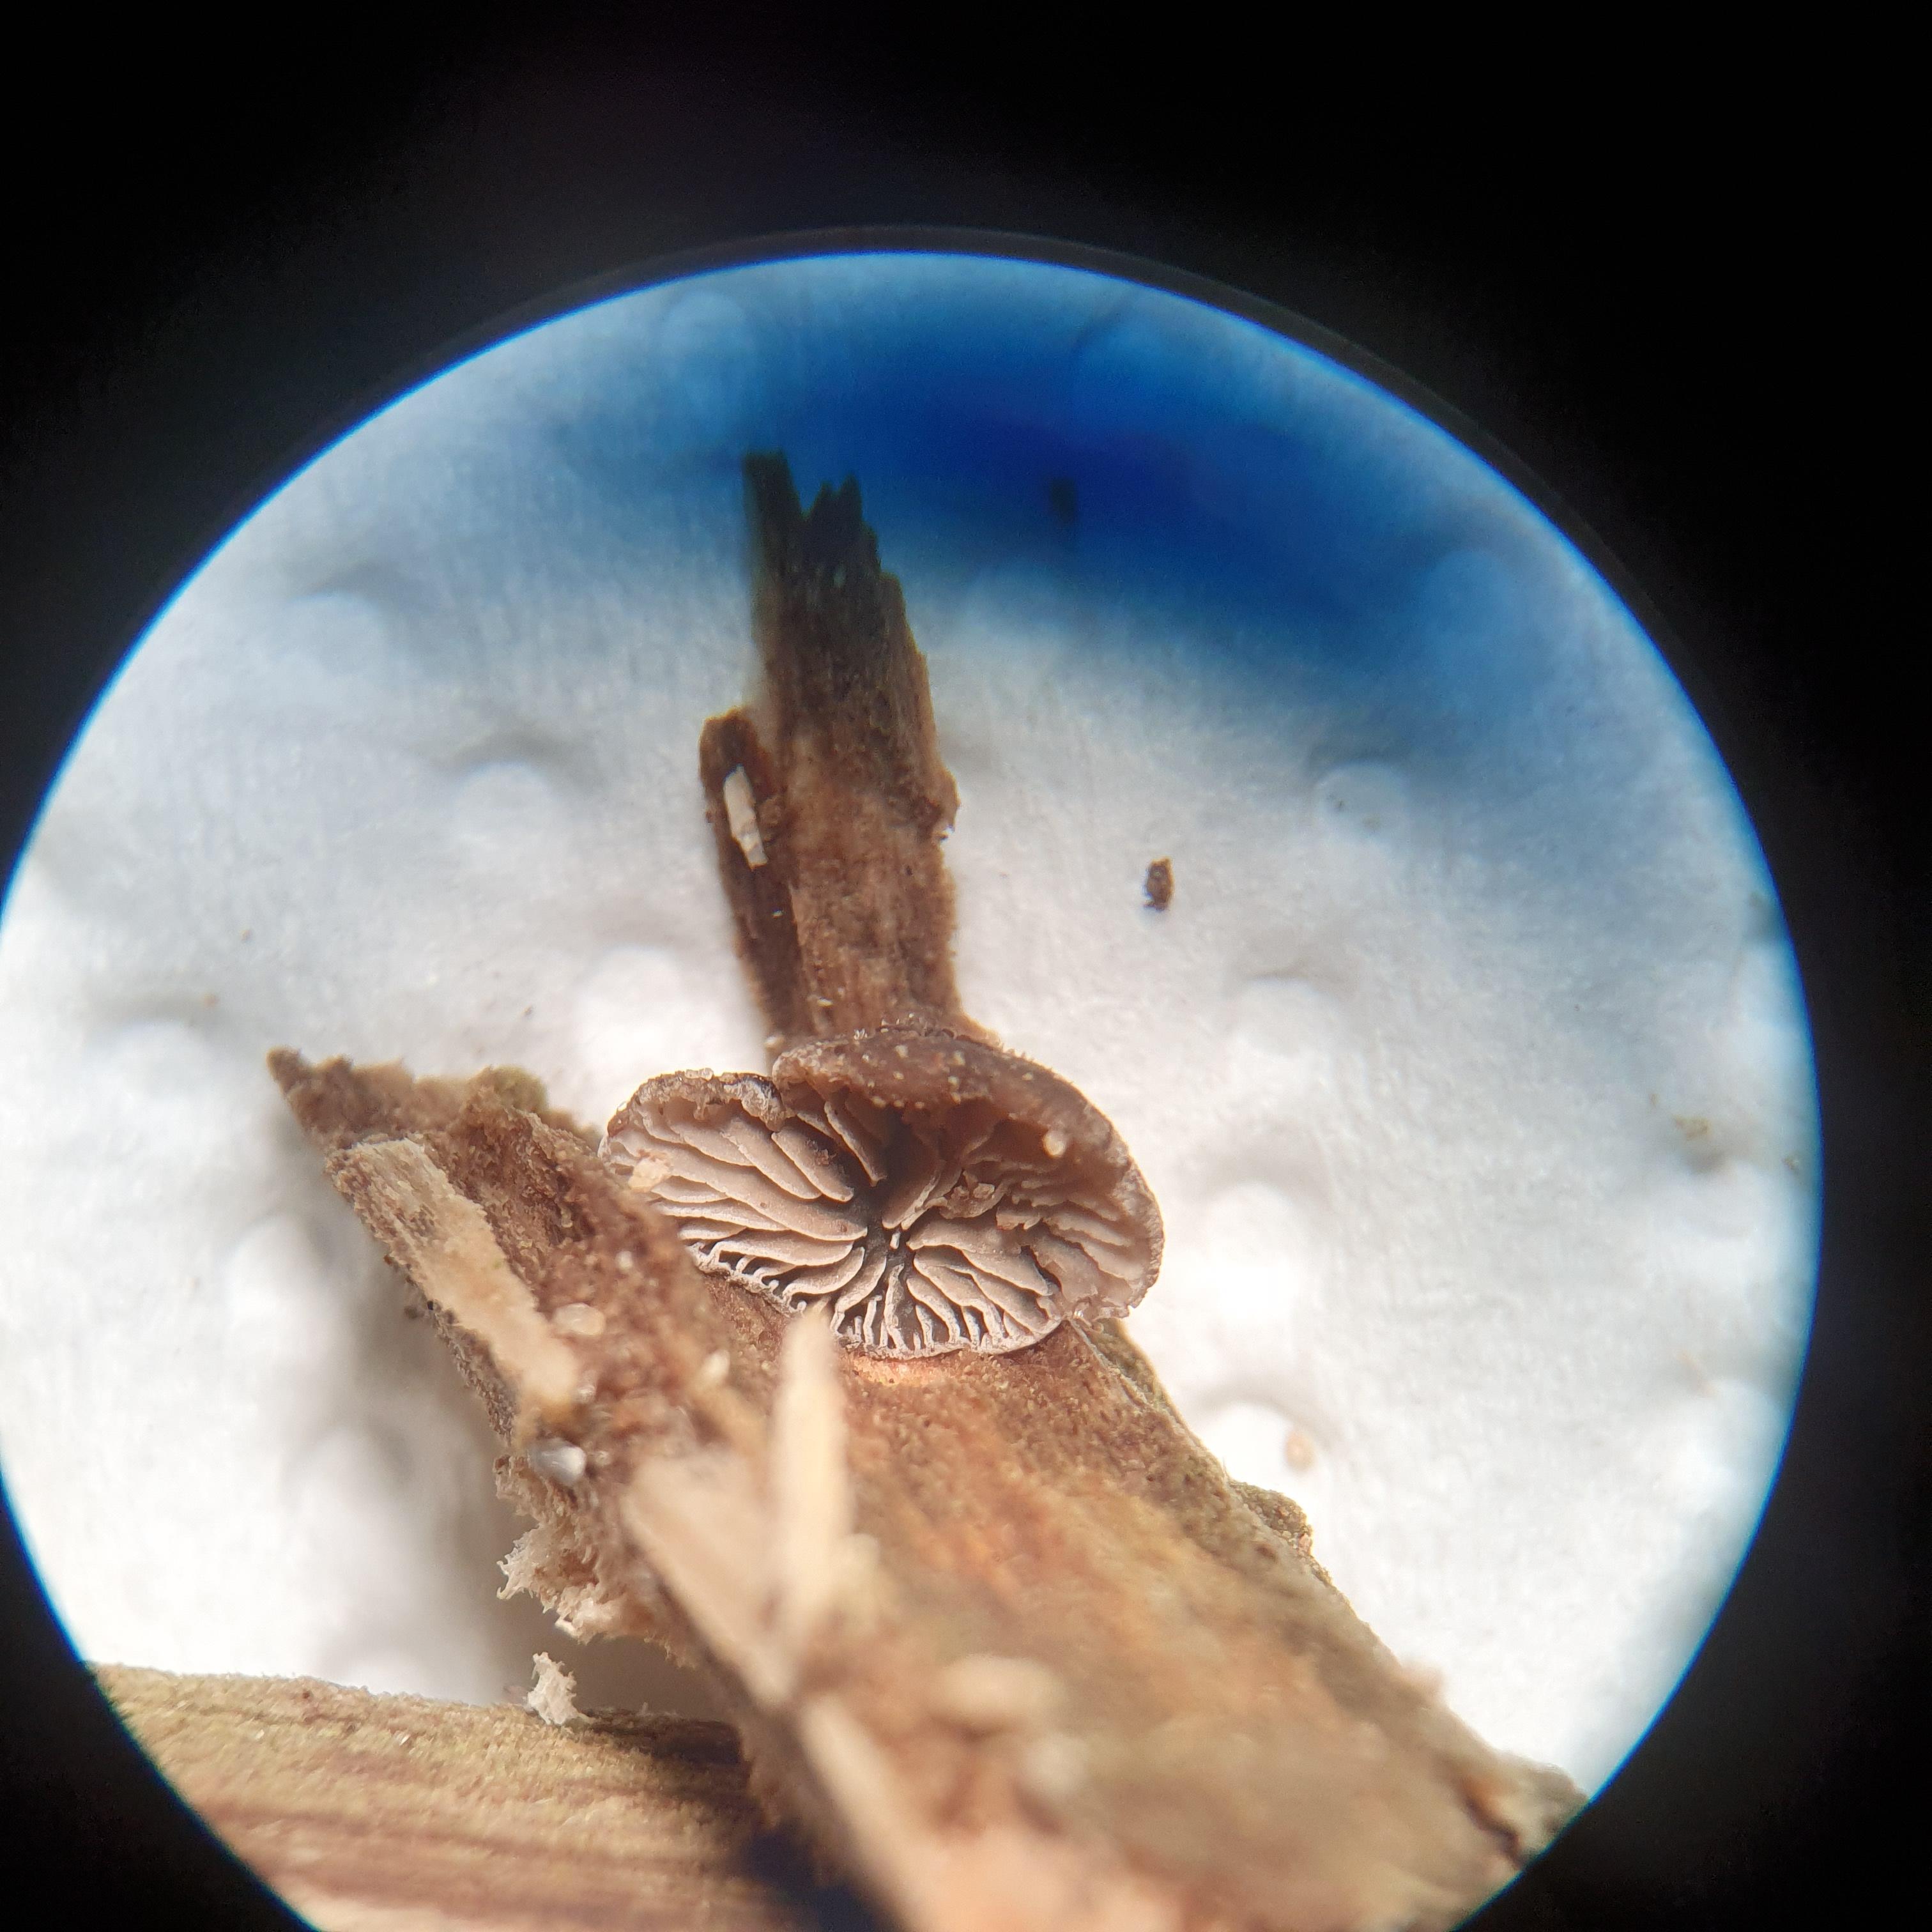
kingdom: Fungi
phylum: Basidiomycota
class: Agaricomycetes
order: Agaricales
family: Pleurotaceae
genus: Resupinatus
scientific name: Resupinatus trichotis
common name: mørkfiltet barkhat
